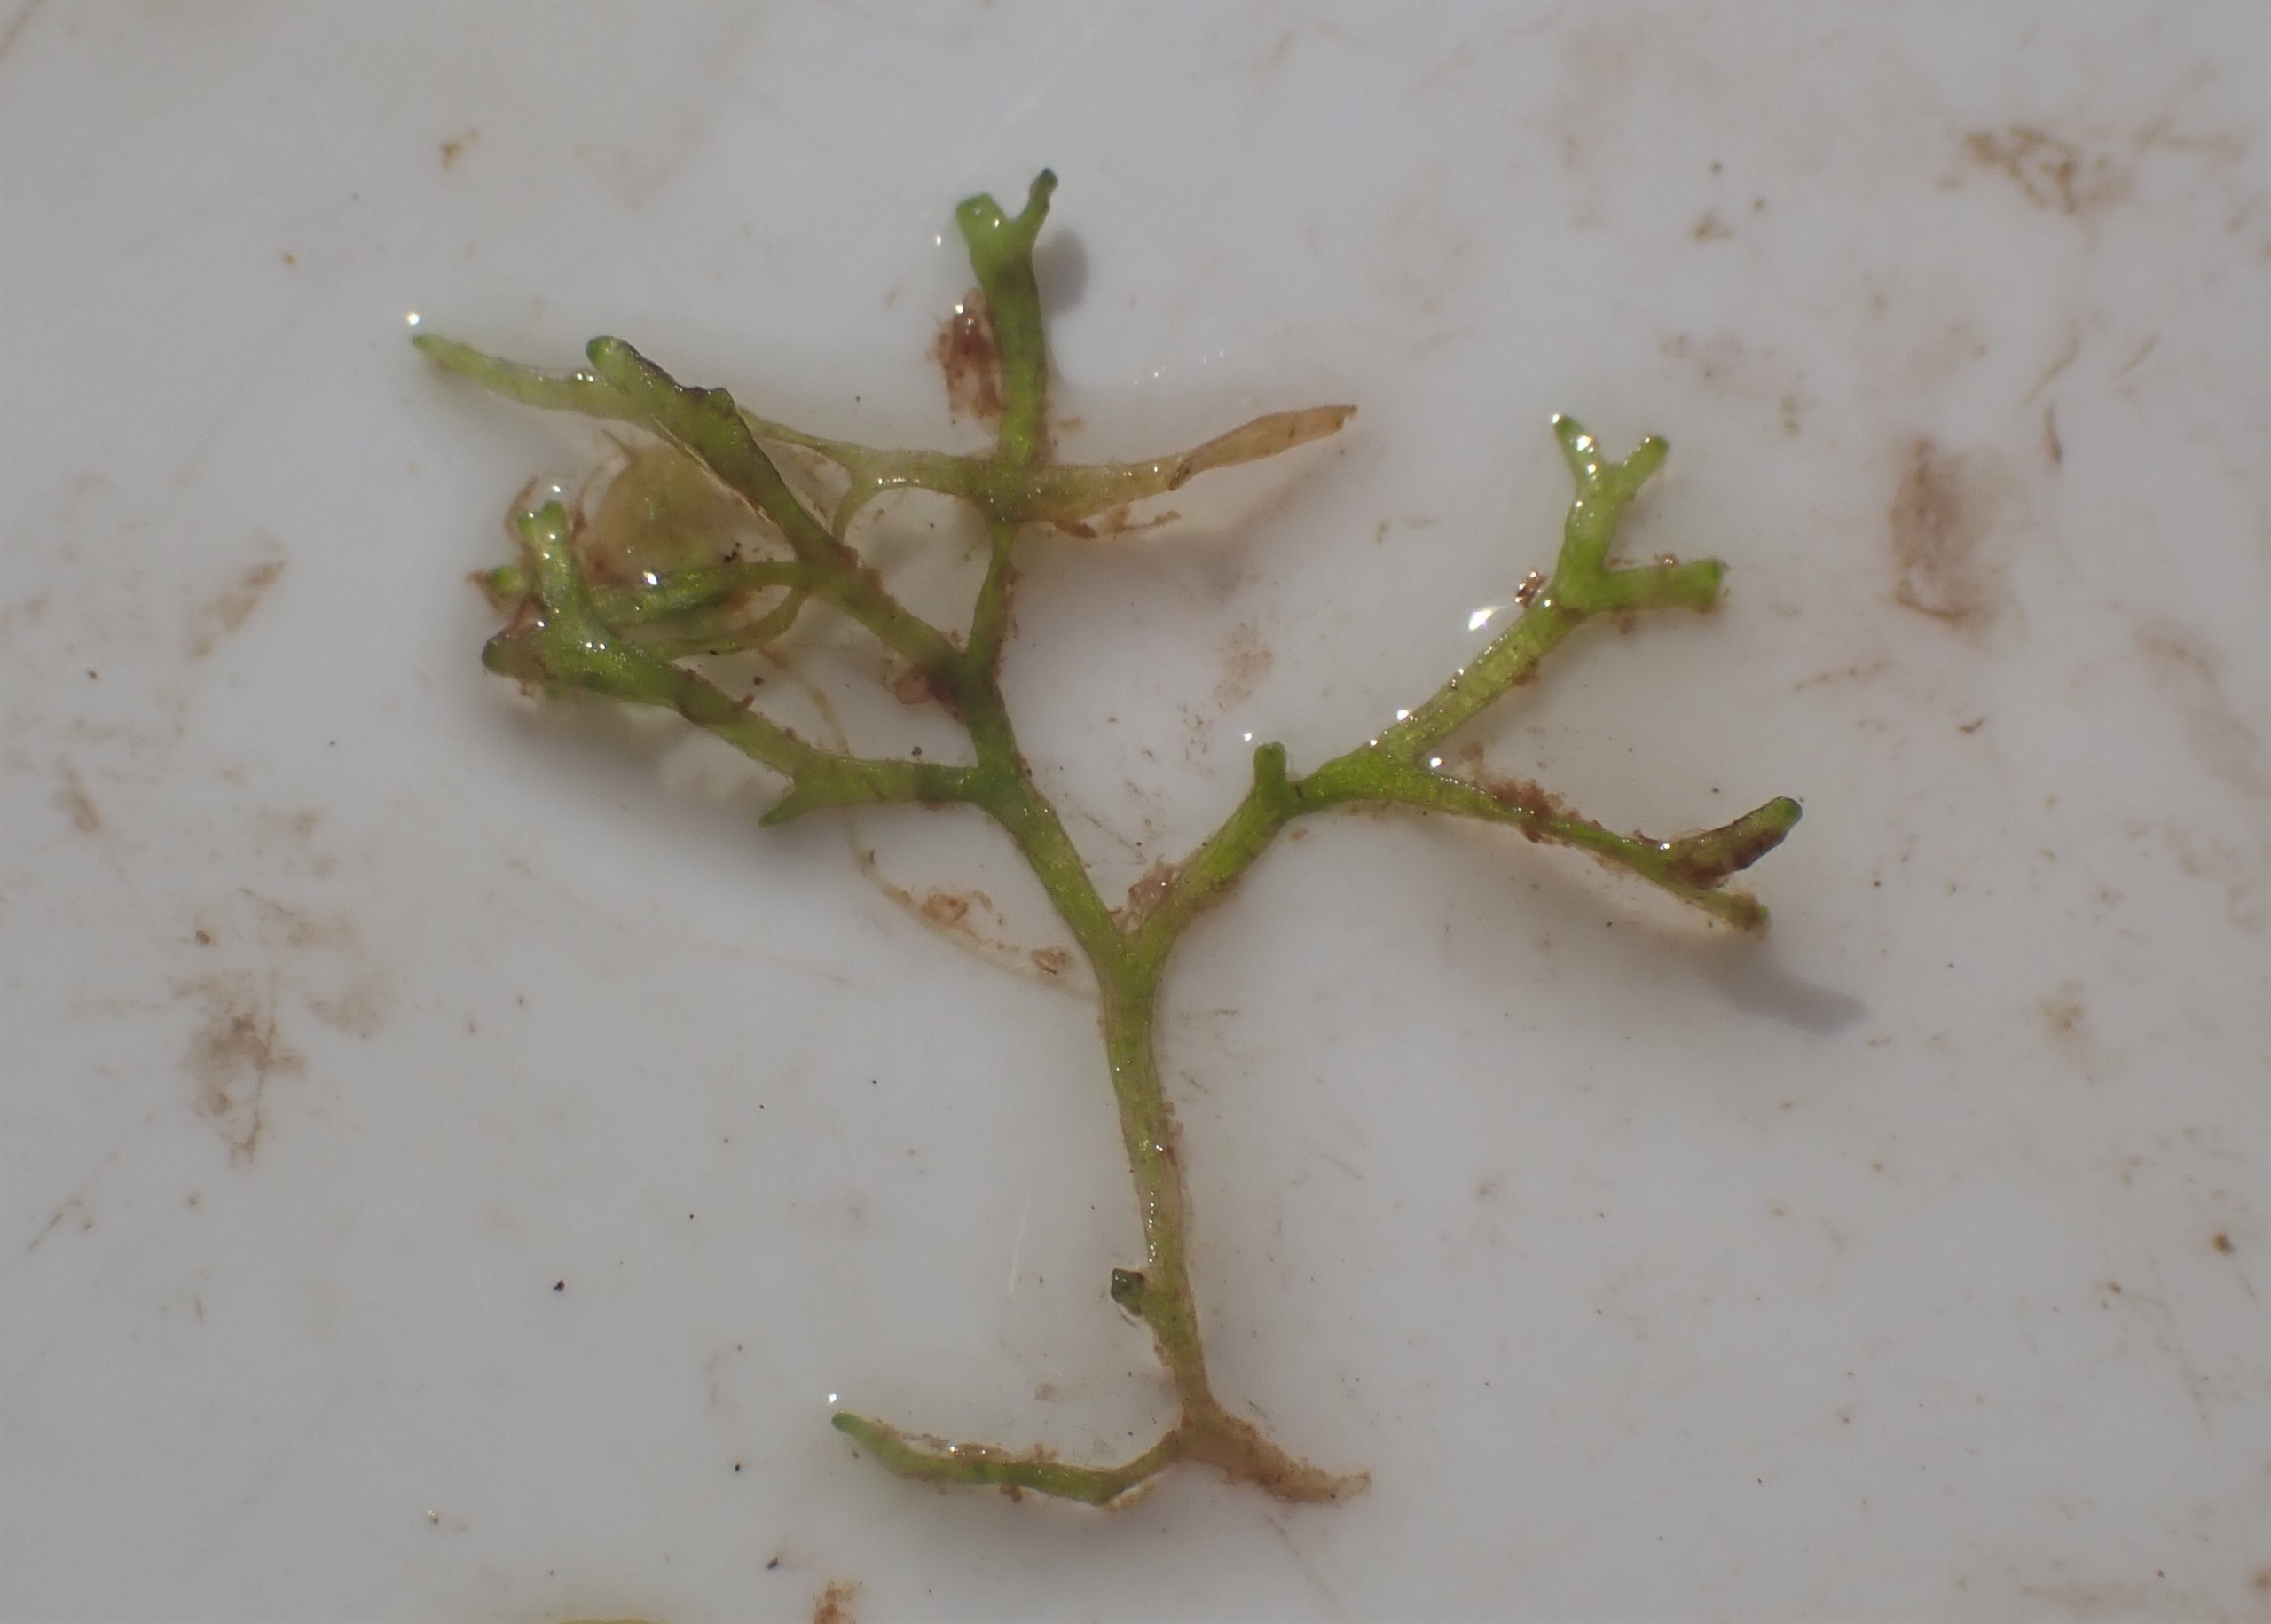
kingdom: Plantae
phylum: Marchantiophyta
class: Marchantiopsida
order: Marchantiales
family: Ricciaceae
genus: Riccia
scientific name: Riccia fluitans
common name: Svømmende stjerneløv
